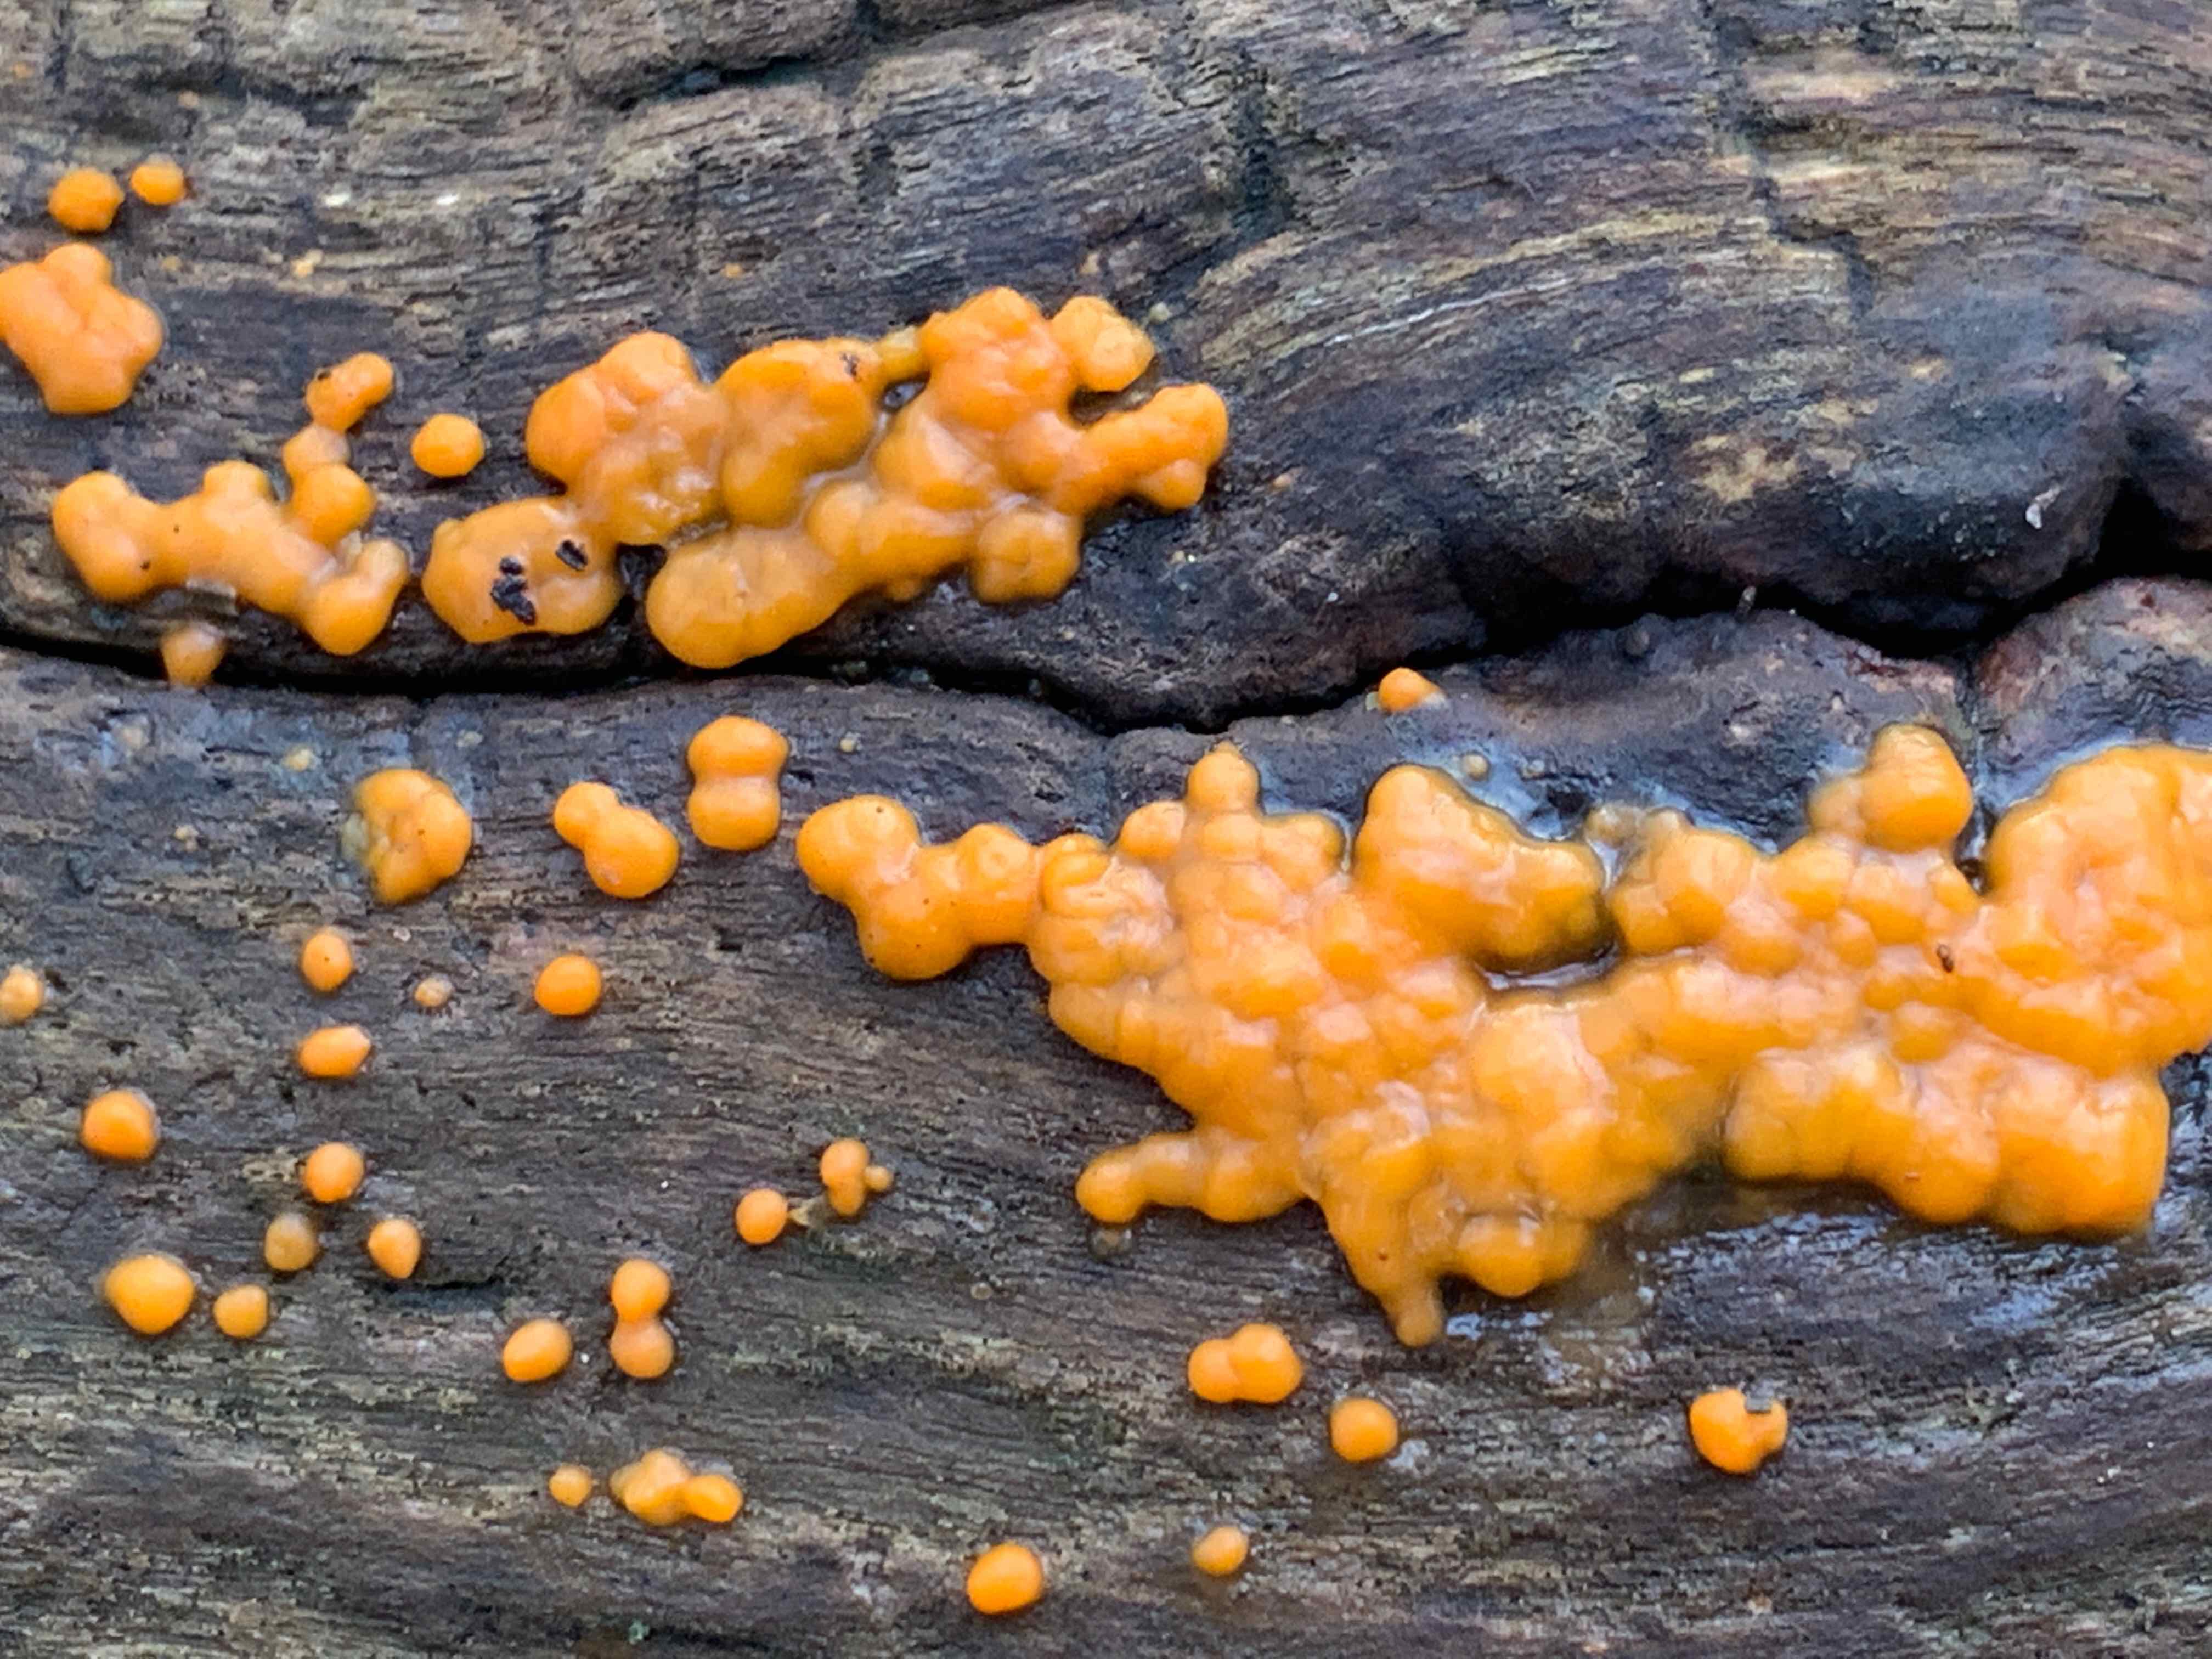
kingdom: Fungi
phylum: Basidiomycota
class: Dacrymycetes
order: Dacrymycetales
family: Dacrymycetaceae
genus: Dacrymyces
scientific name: Dacrymyces stillatus
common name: almindelig tåresvamp
